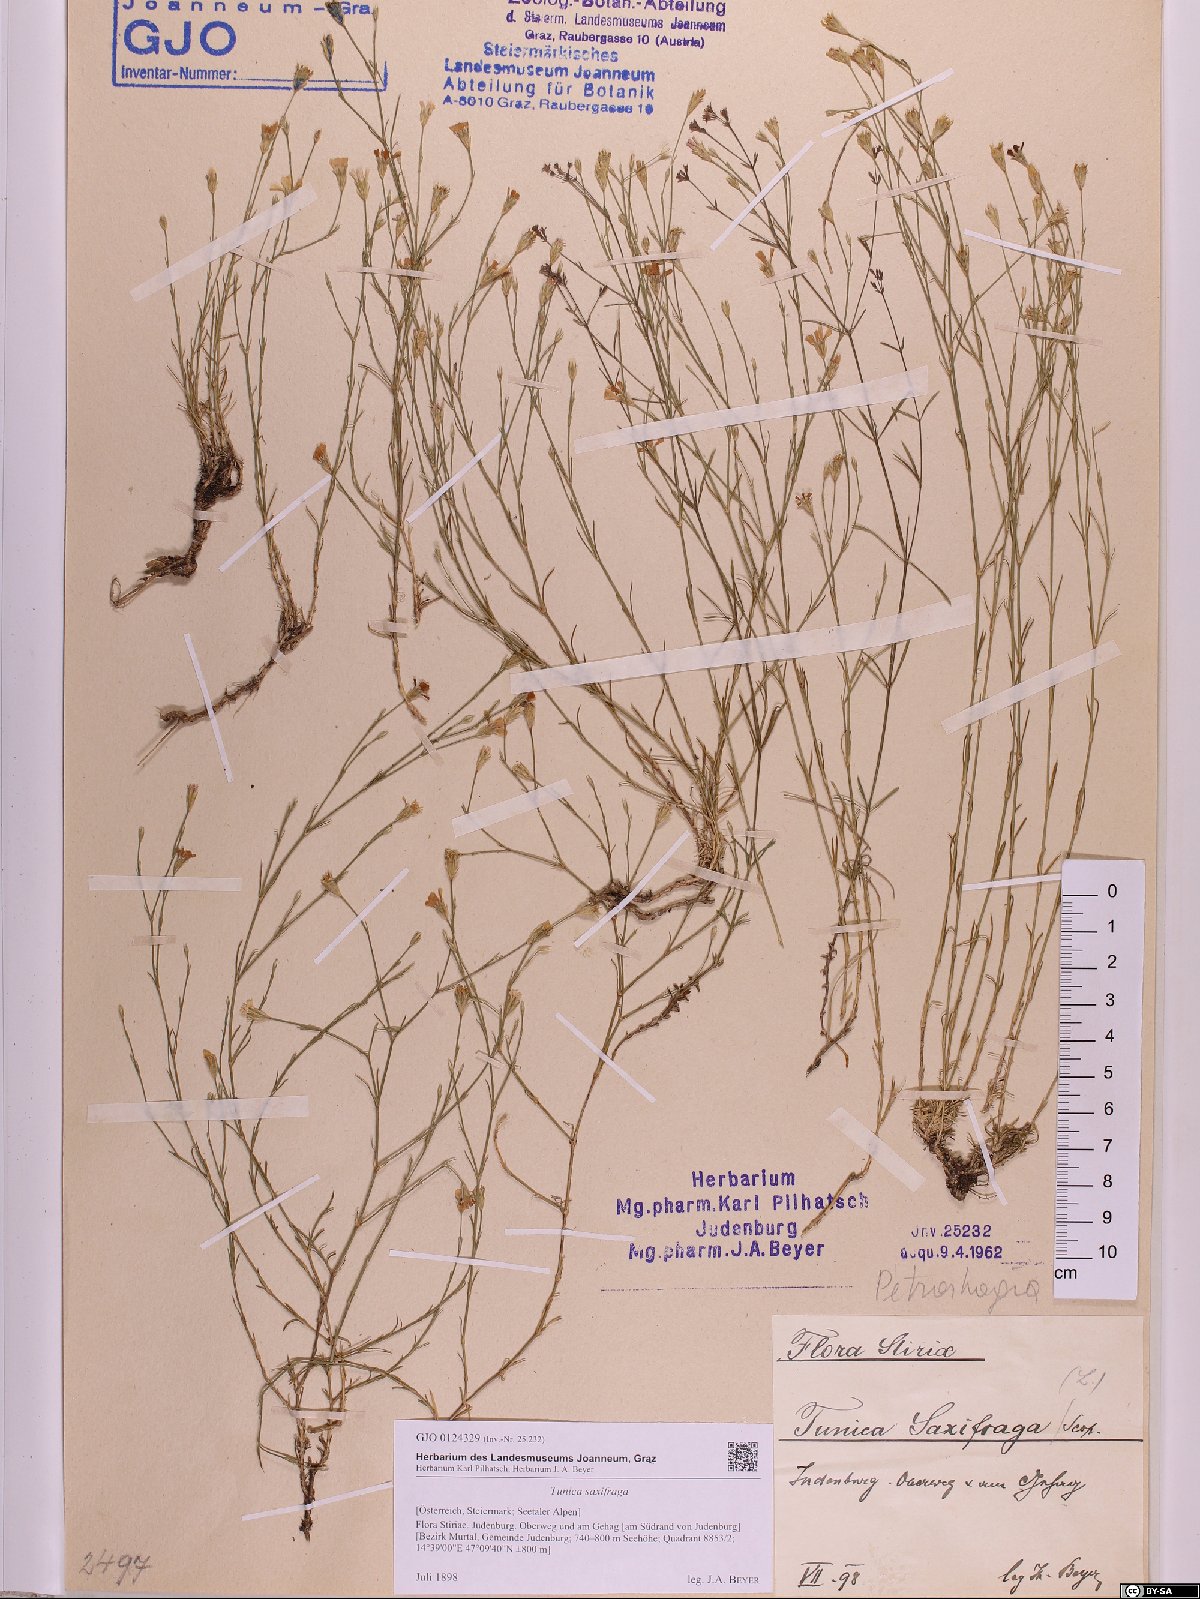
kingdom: Plantae
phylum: Tracheophyta
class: Magnoliopsida
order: Caryophyllales
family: Caryophyllaceae
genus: Petrorhagia
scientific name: Petrorhagia saxifraga
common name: Tunicflower
